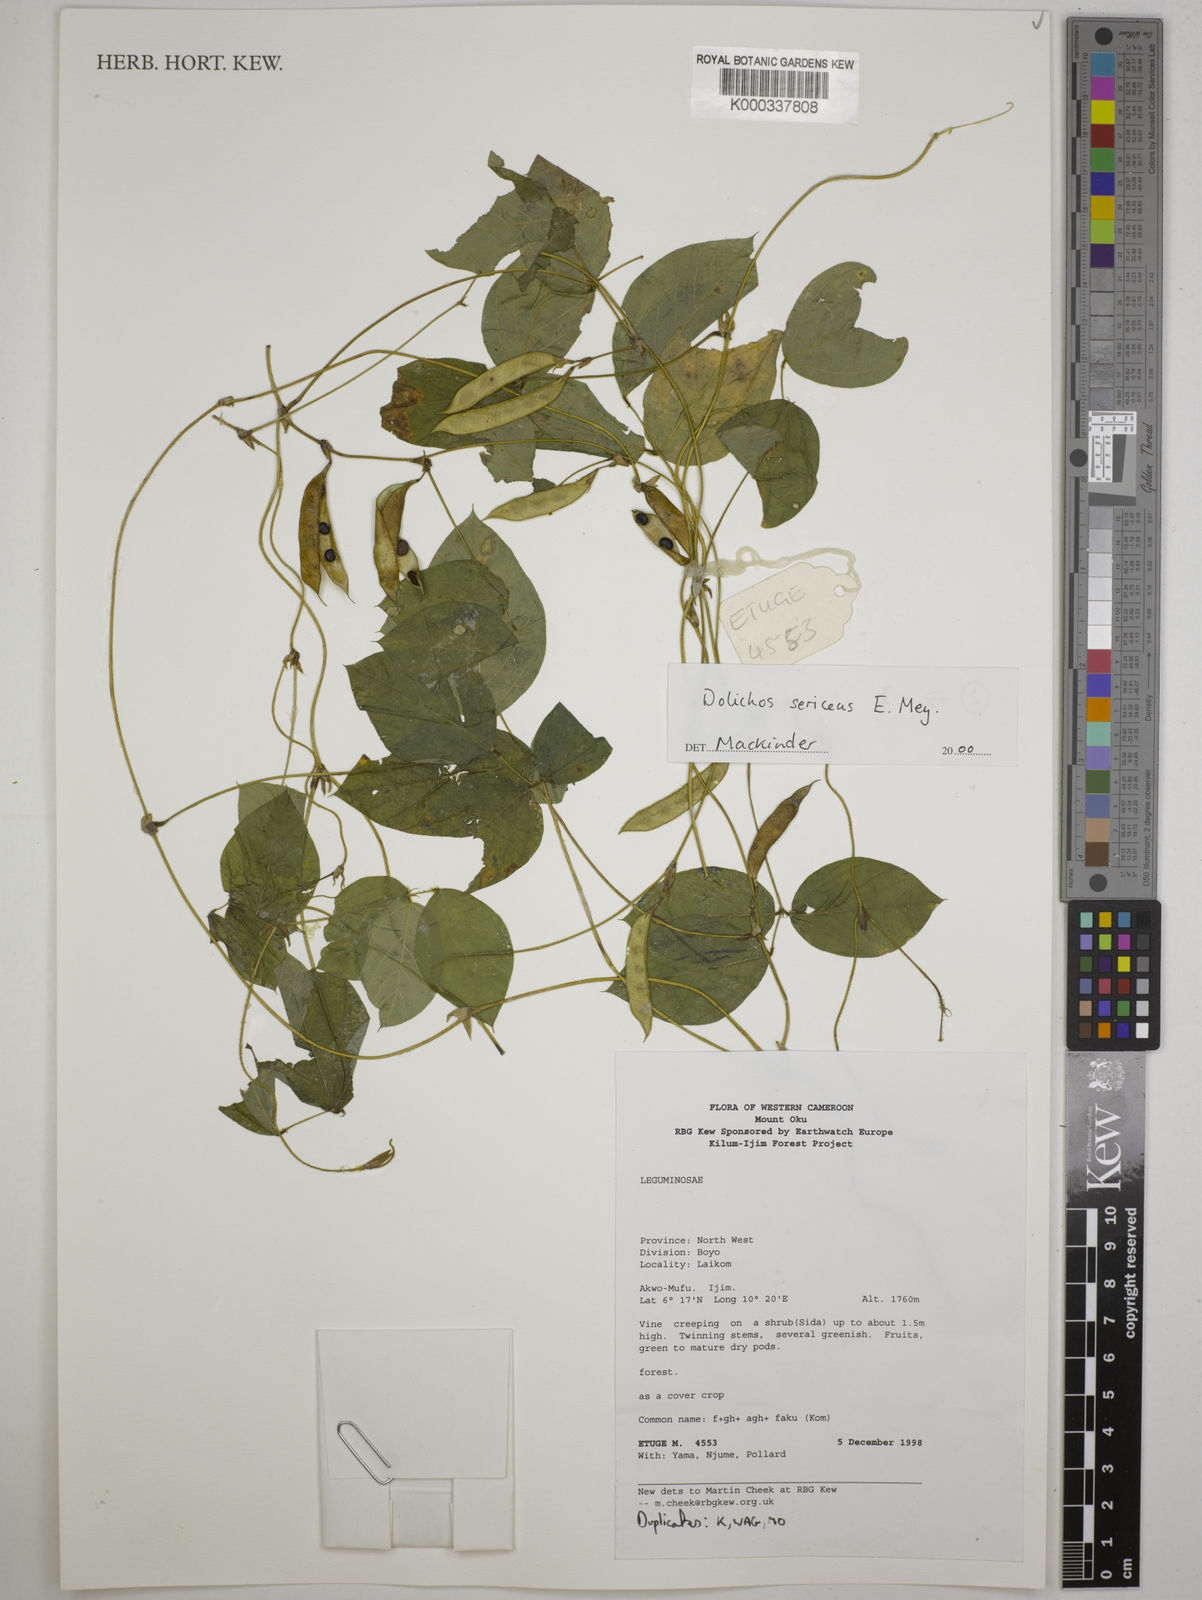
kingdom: Plantae
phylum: Tracheophyta
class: Magnoliopsida
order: Fabales
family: Fabaceae
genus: Dolichos
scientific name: Dolichos sericeus
